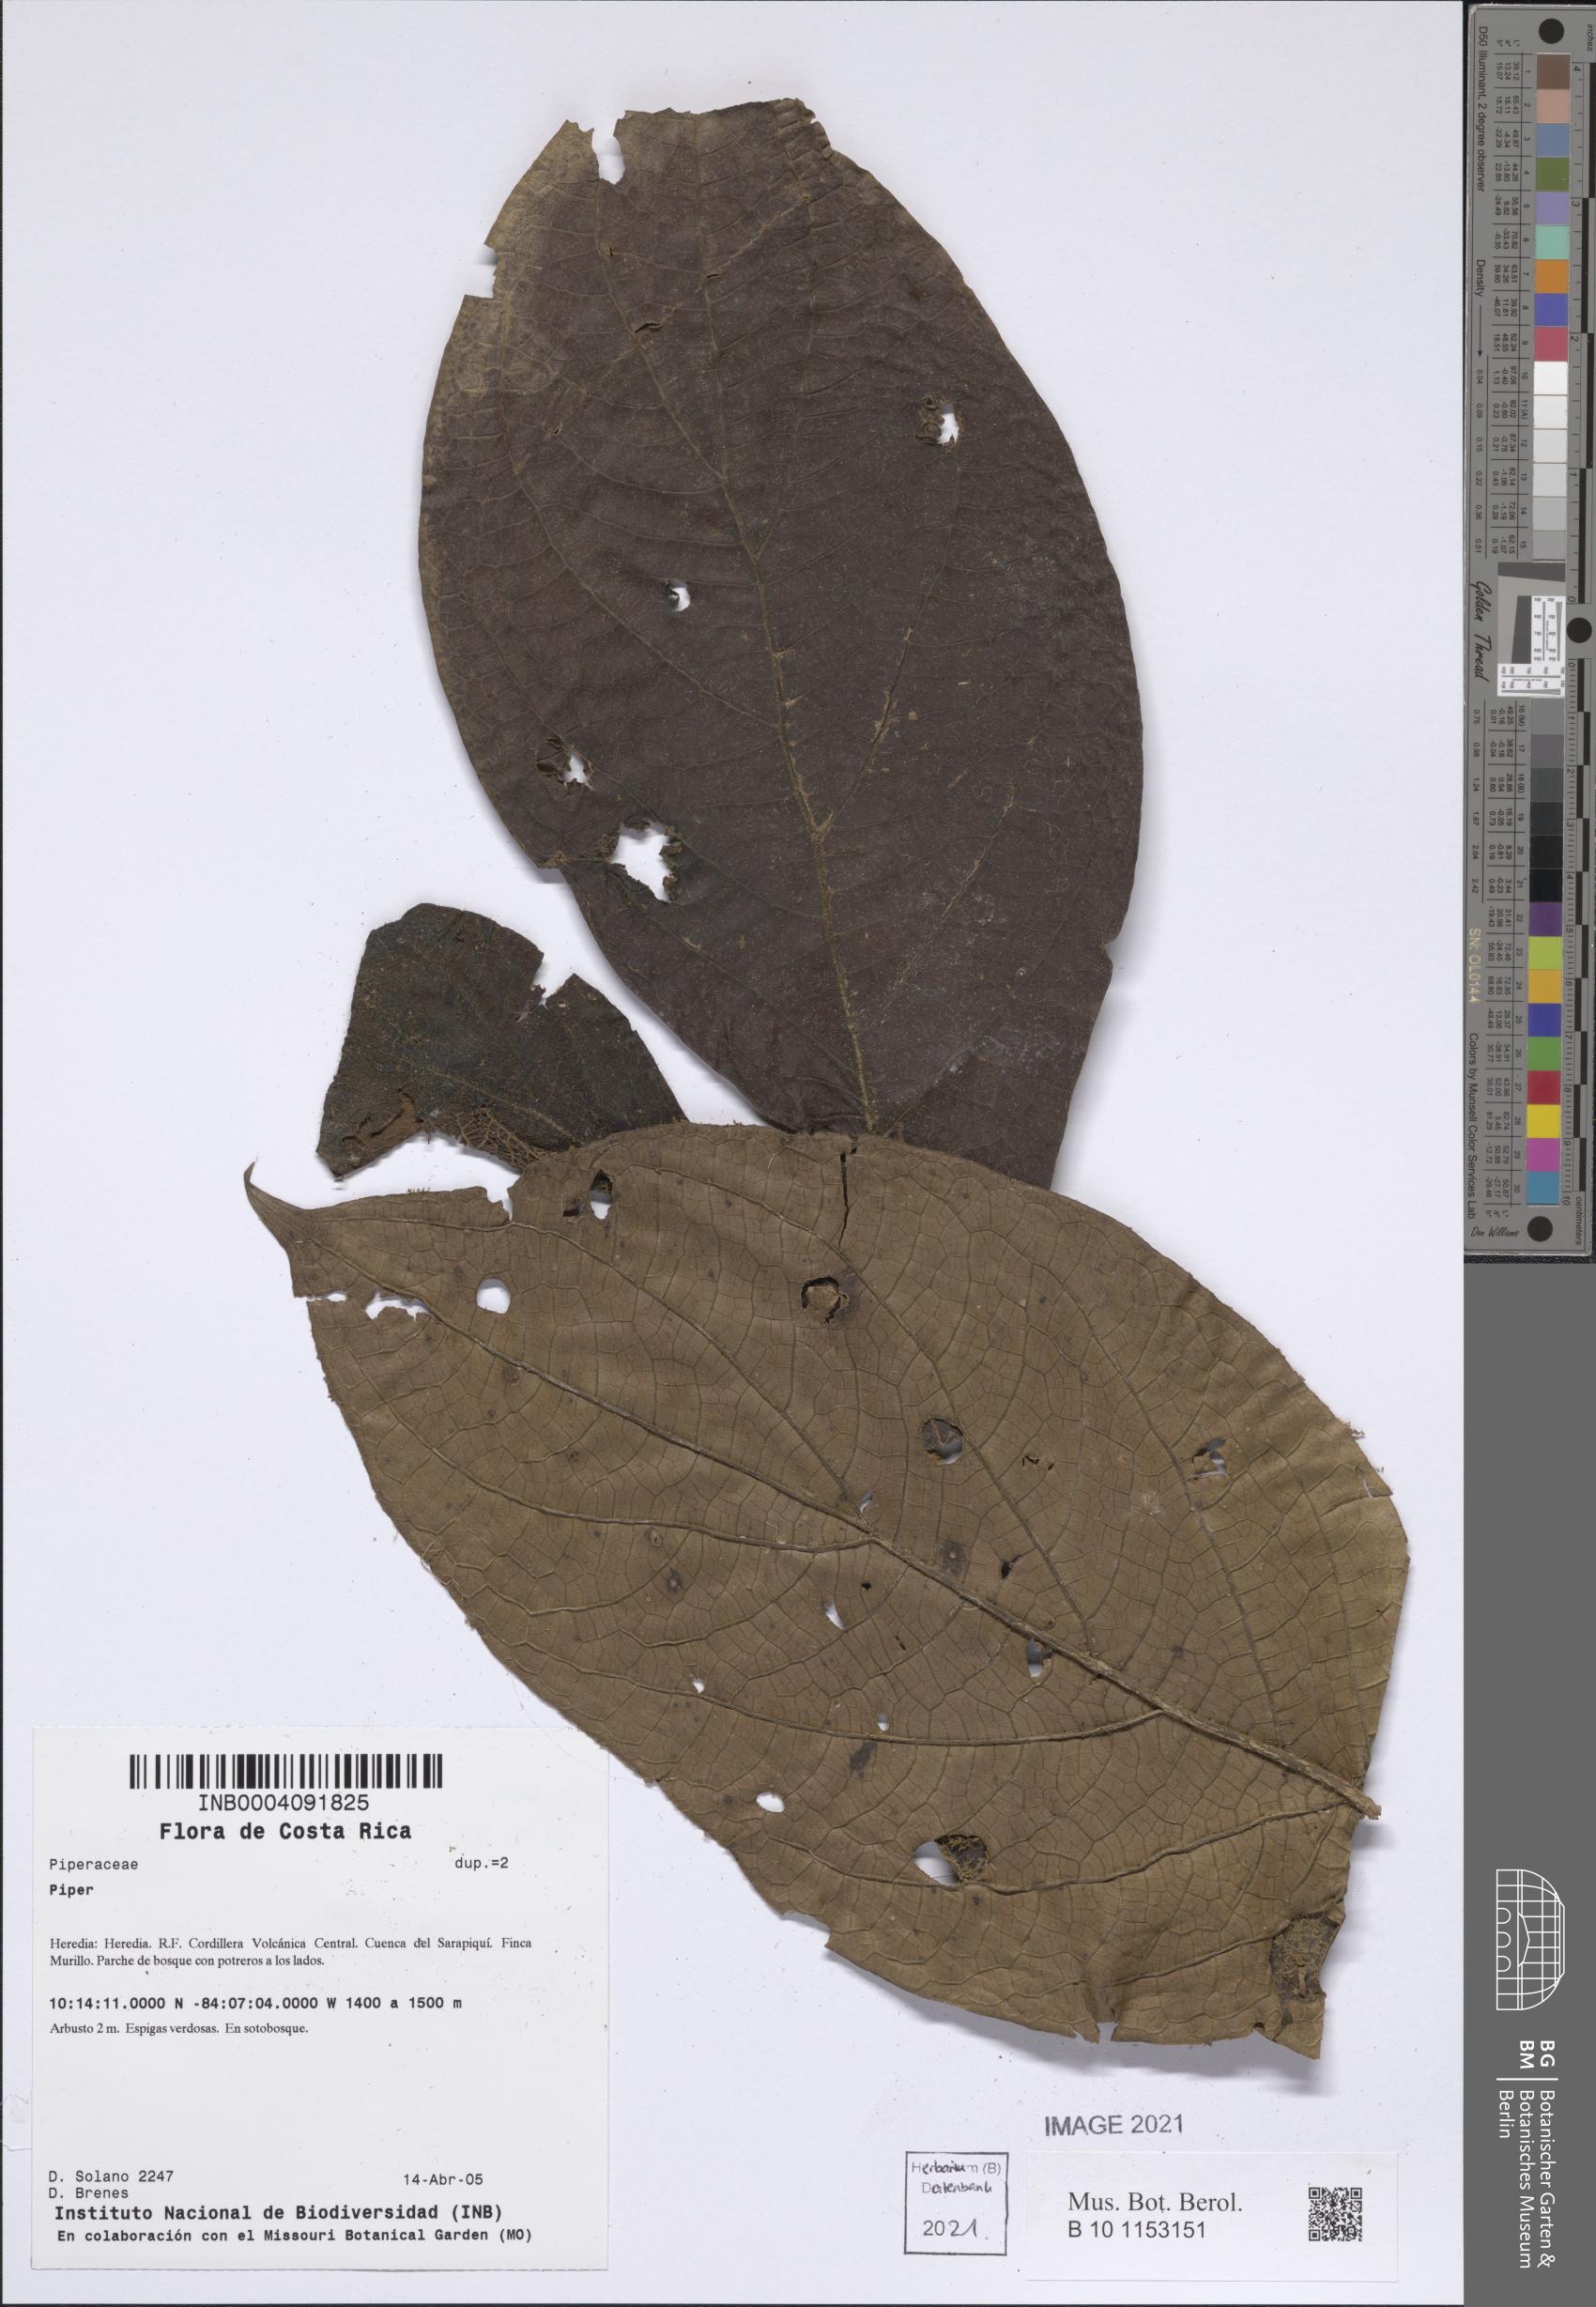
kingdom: Plantae
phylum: Tracheophyta
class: Magnoliopsida
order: Piperales
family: Piperaceae
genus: Piper
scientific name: Piper
